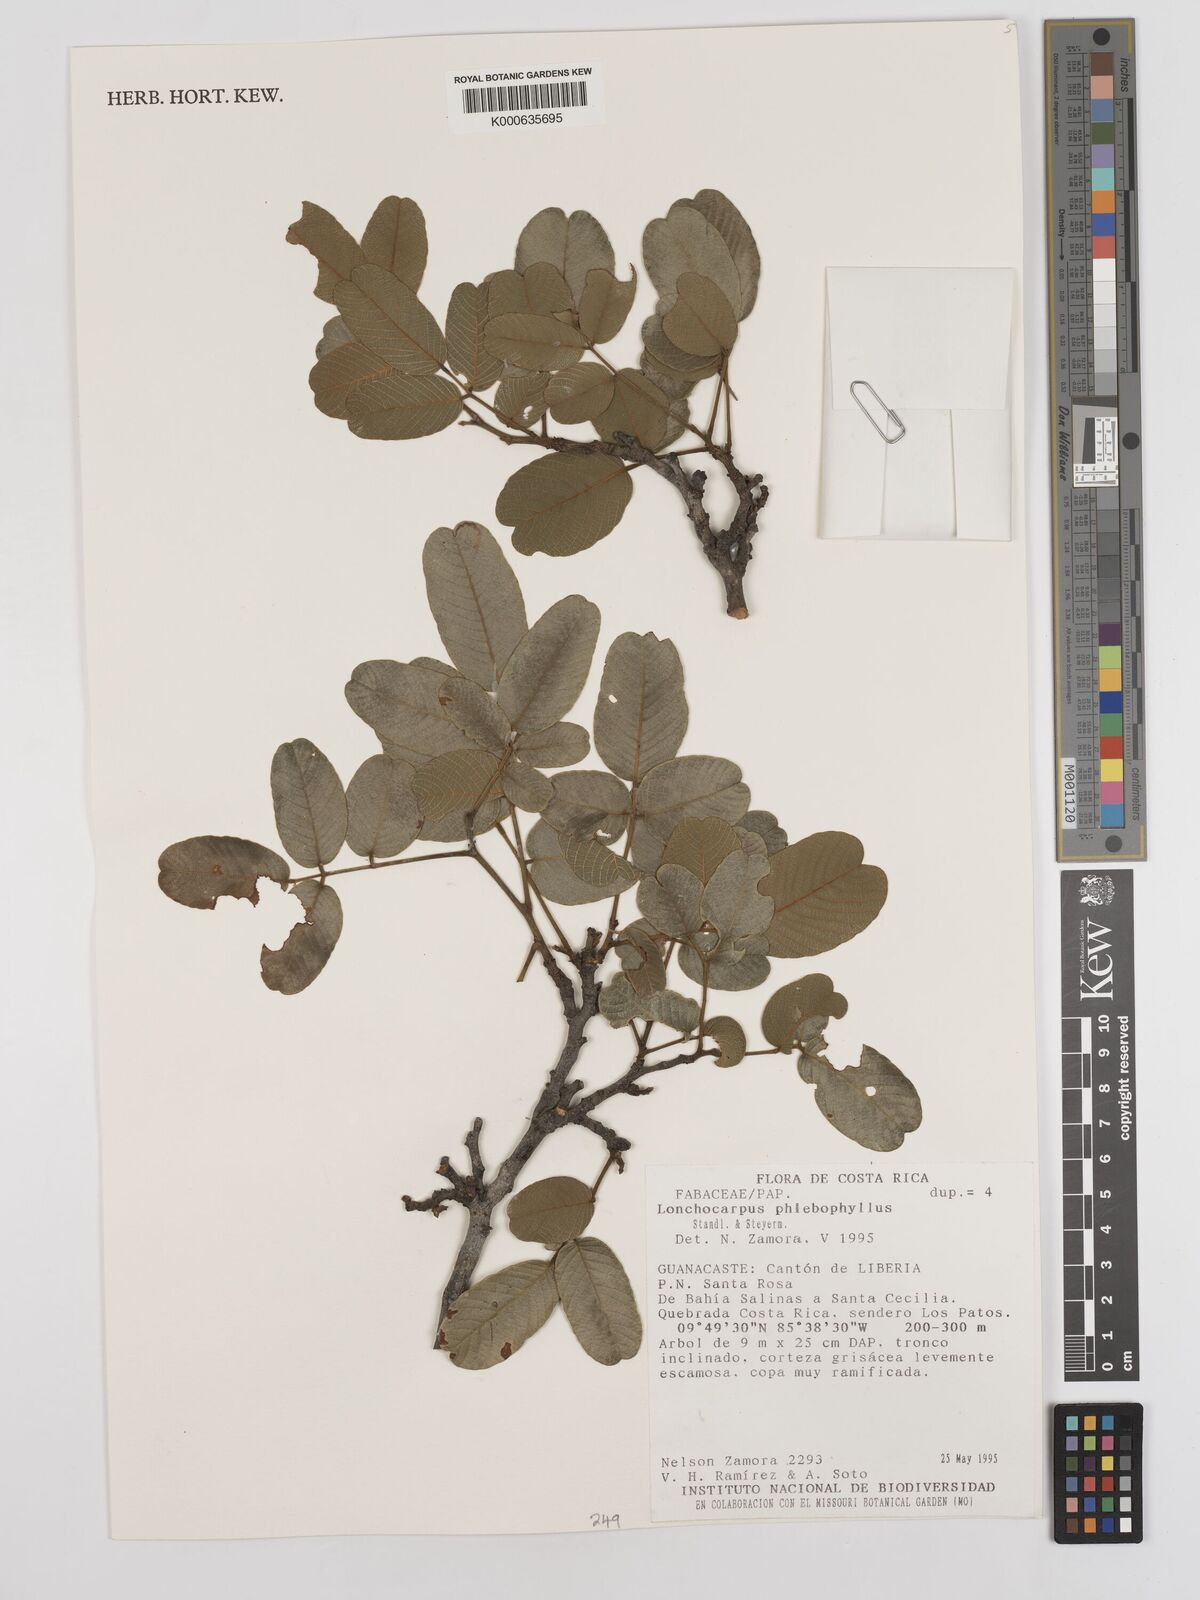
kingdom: Plantae
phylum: Tracheophyta
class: Magnoliopsida
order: Fabales
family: Fabaceae
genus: Lonchocarpus
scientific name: Lonchocarpus phlebophyllus
